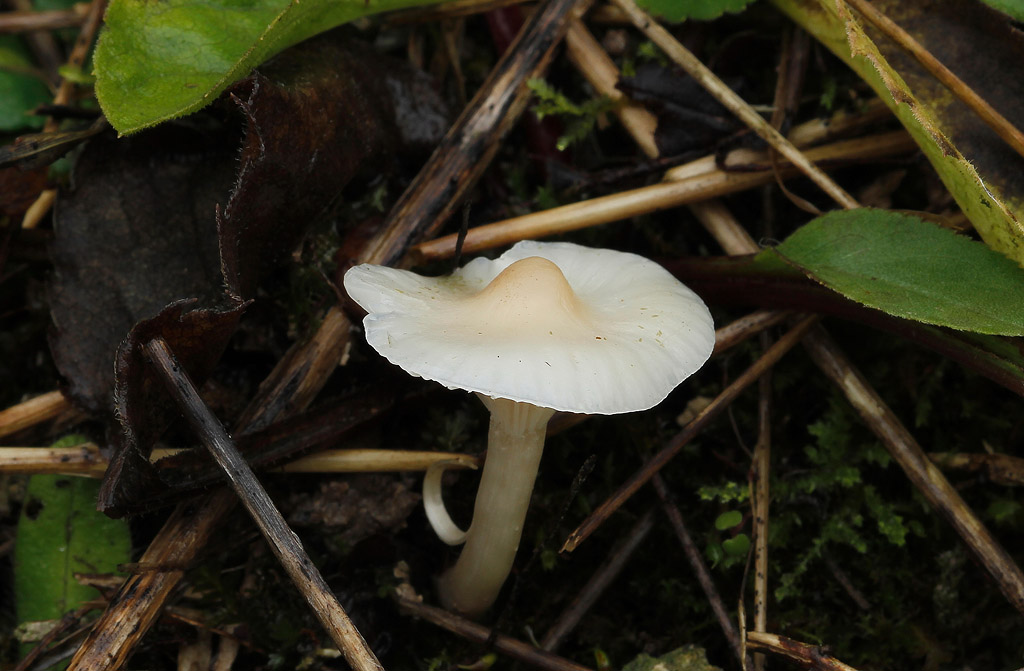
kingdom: Fungi
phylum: Basidiomycota
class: Agaricomycetes
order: Agaricales
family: Hygrophoraceae
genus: Cuphophyllus
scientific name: Cuphophyllus virgineus
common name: snehvid vokshat
